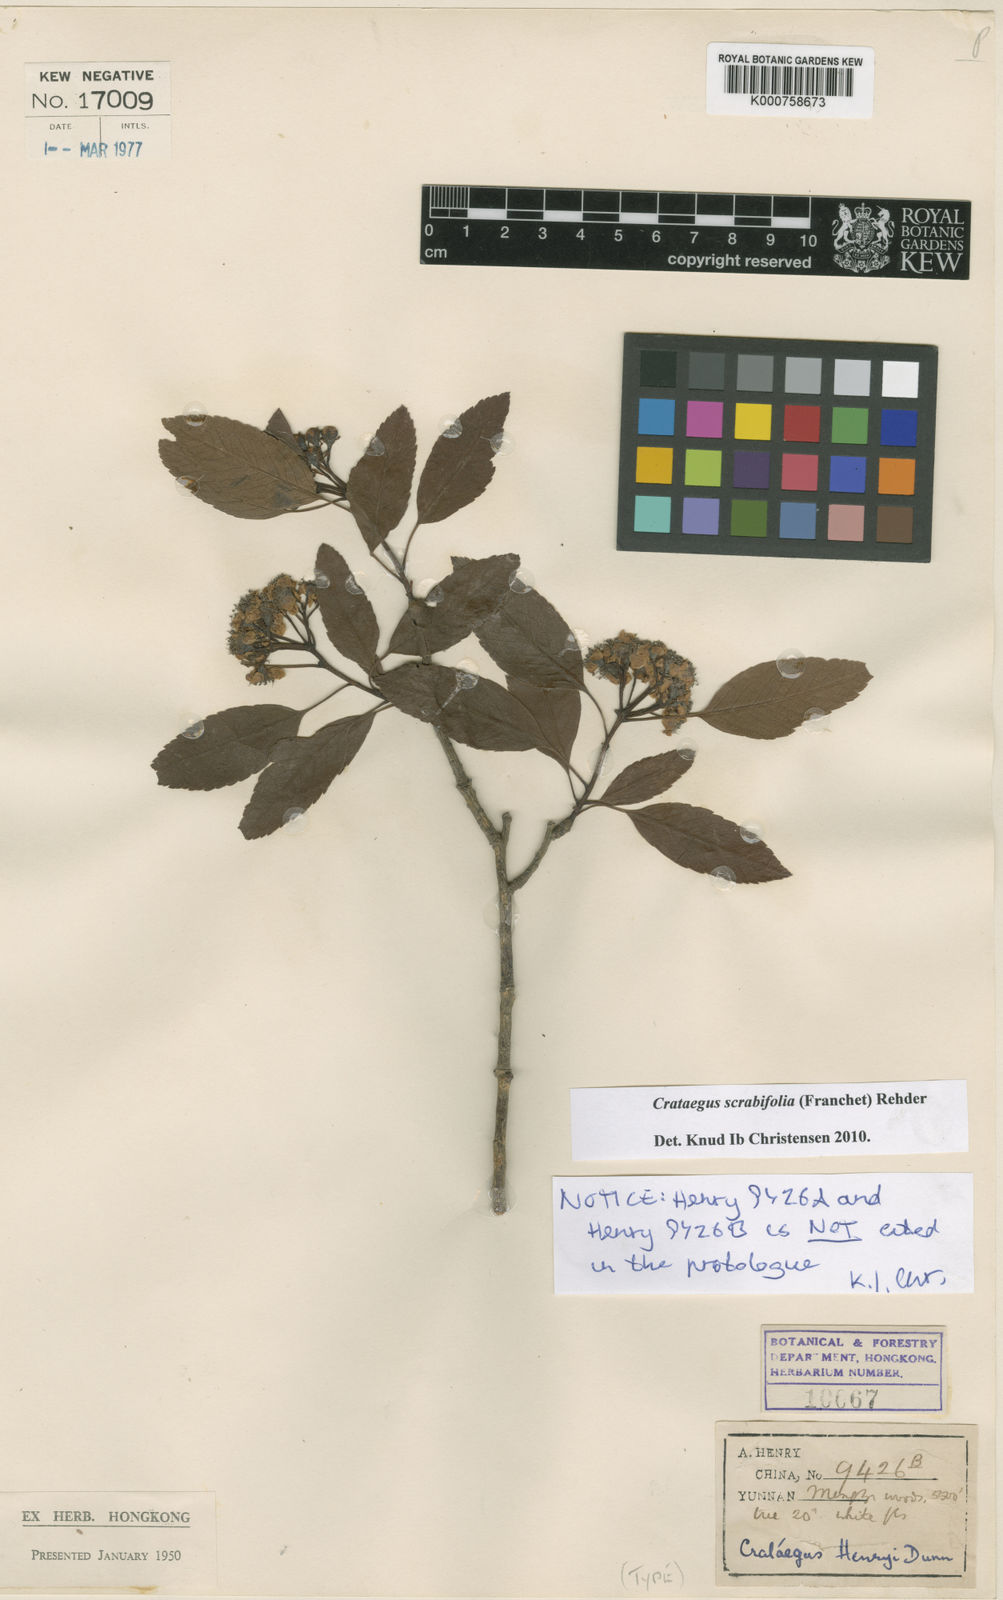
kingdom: Plantae
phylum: Tracheophyta
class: Magnoliopsida
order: Rosales
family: Rosaceae
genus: Crataegus
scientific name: Crataegus scabrifolia
